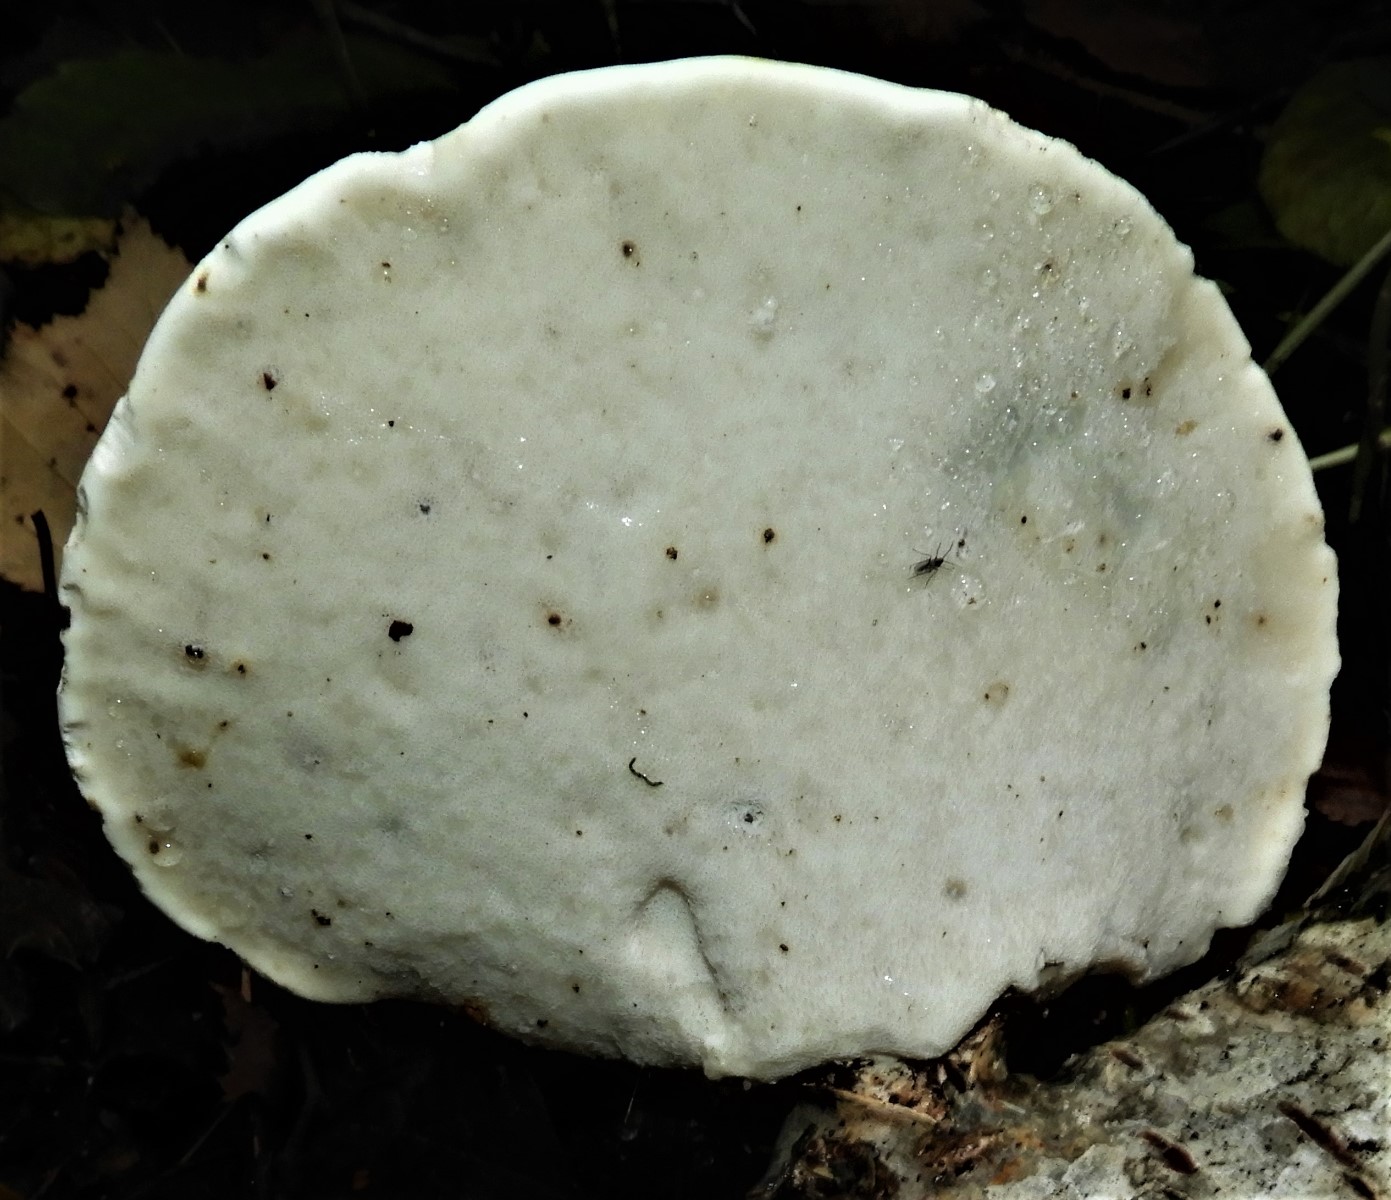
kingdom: Fungi
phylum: Basidiomycota
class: Agaricomycetes
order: Polyporales
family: Fomitopsidaceae
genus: Fomitopsis
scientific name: Fomitopsis betulina
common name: birkeporesvamp
